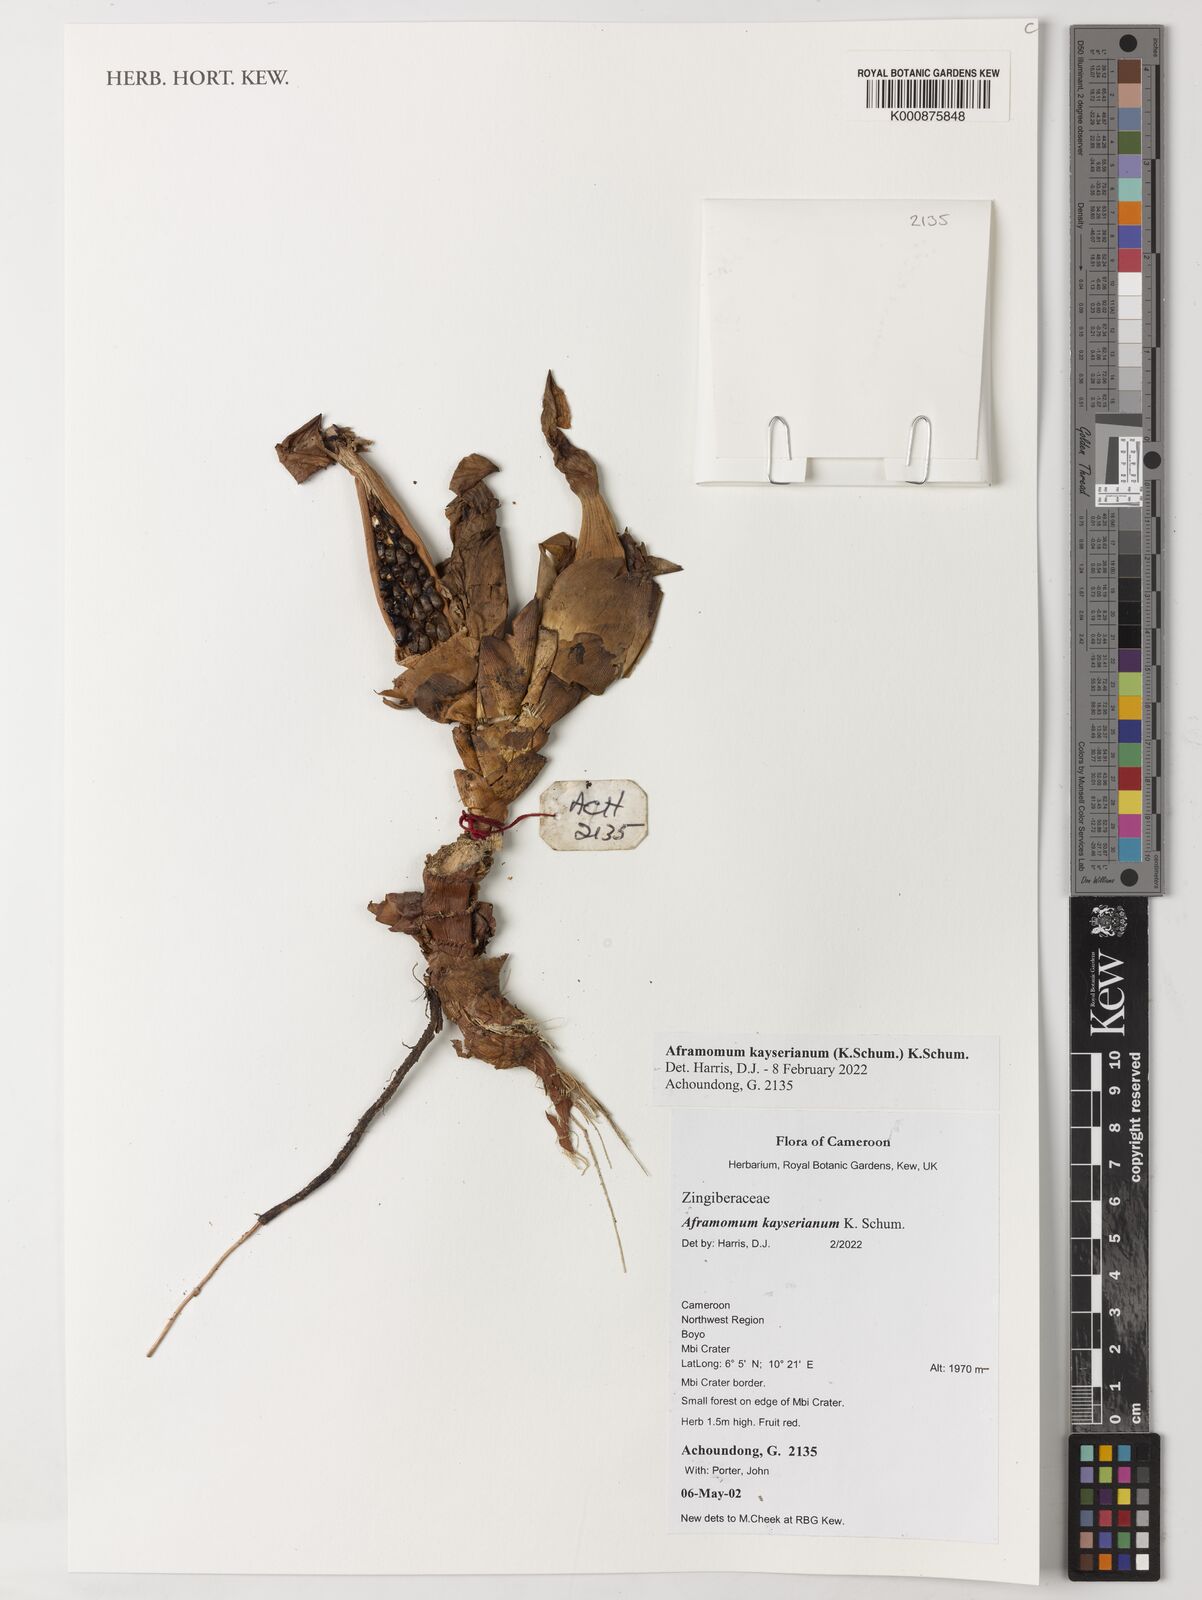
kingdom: Plantae
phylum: Tracheophyta
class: Liliopsida
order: Zingiberales
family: Zingiberaceae
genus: Aframomum
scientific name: Aframomum kayserianum
